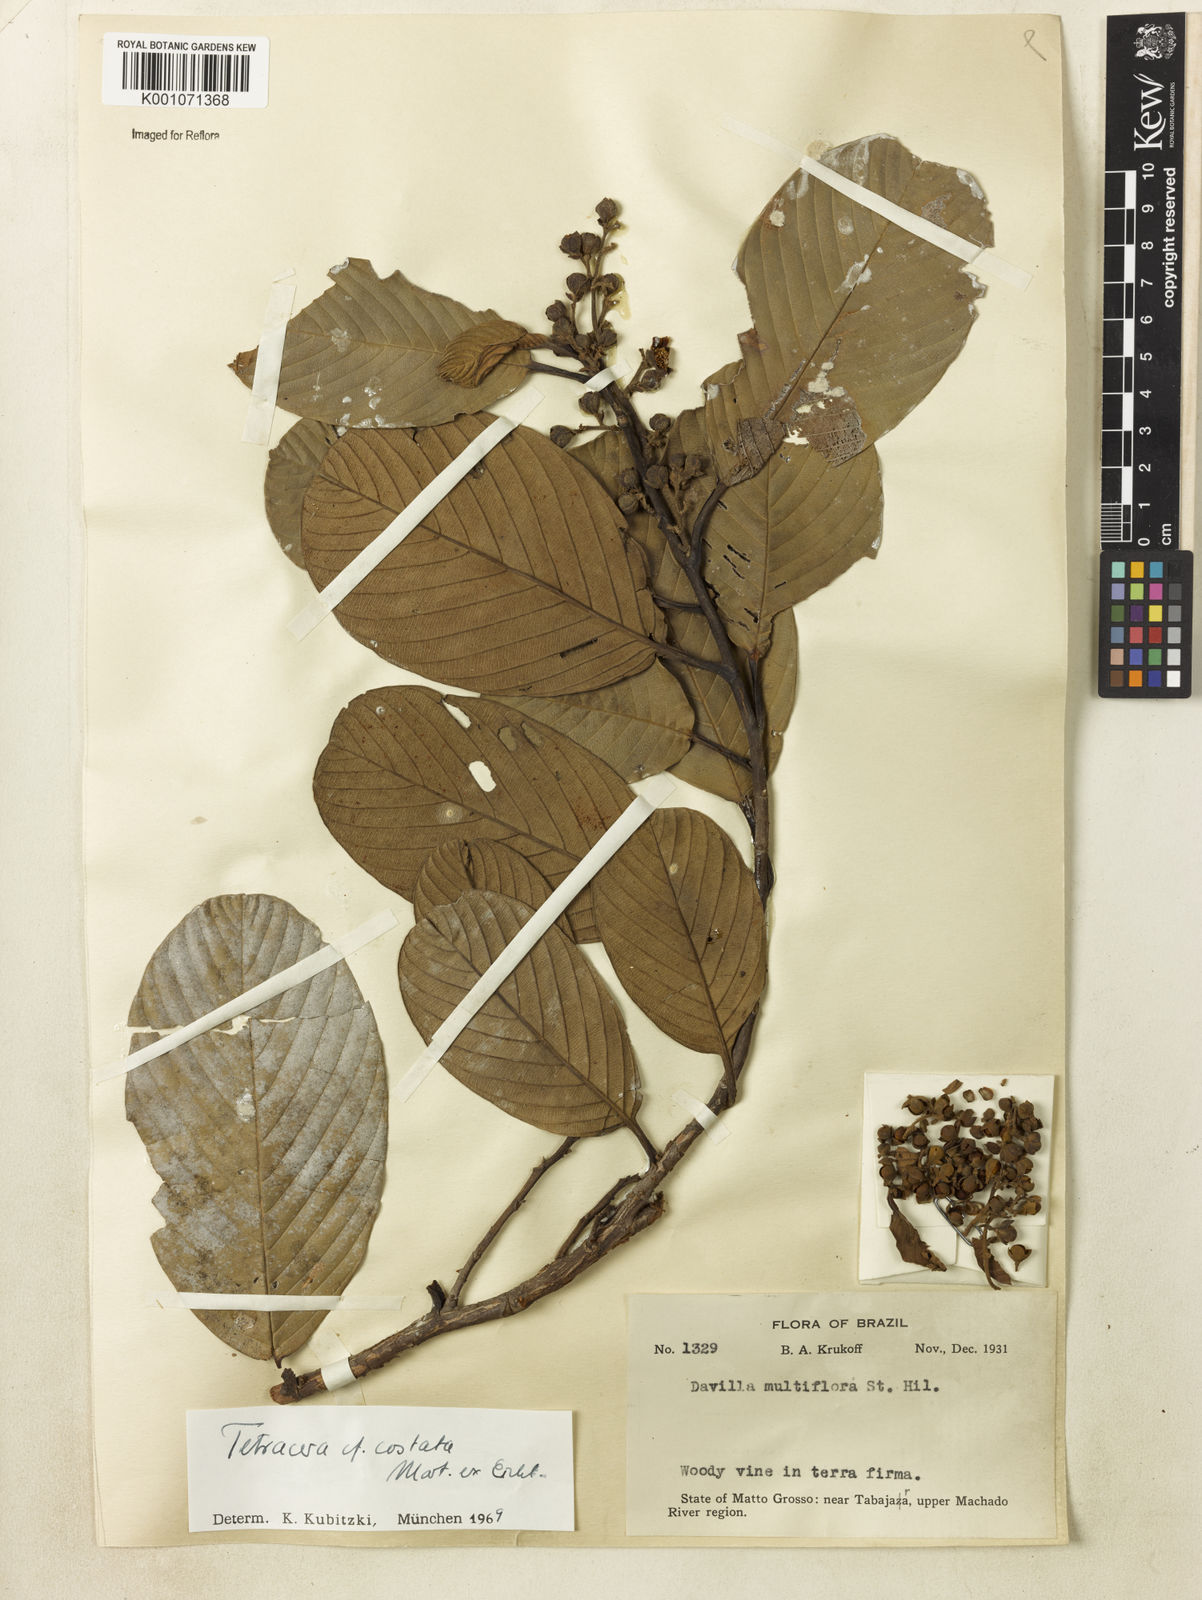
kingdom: Plantae
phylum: Tracheophyta
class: Magnoliopsida
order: Dilleniales
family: Dilleniaceae
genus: Tetracera
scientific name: Tetracera costata
